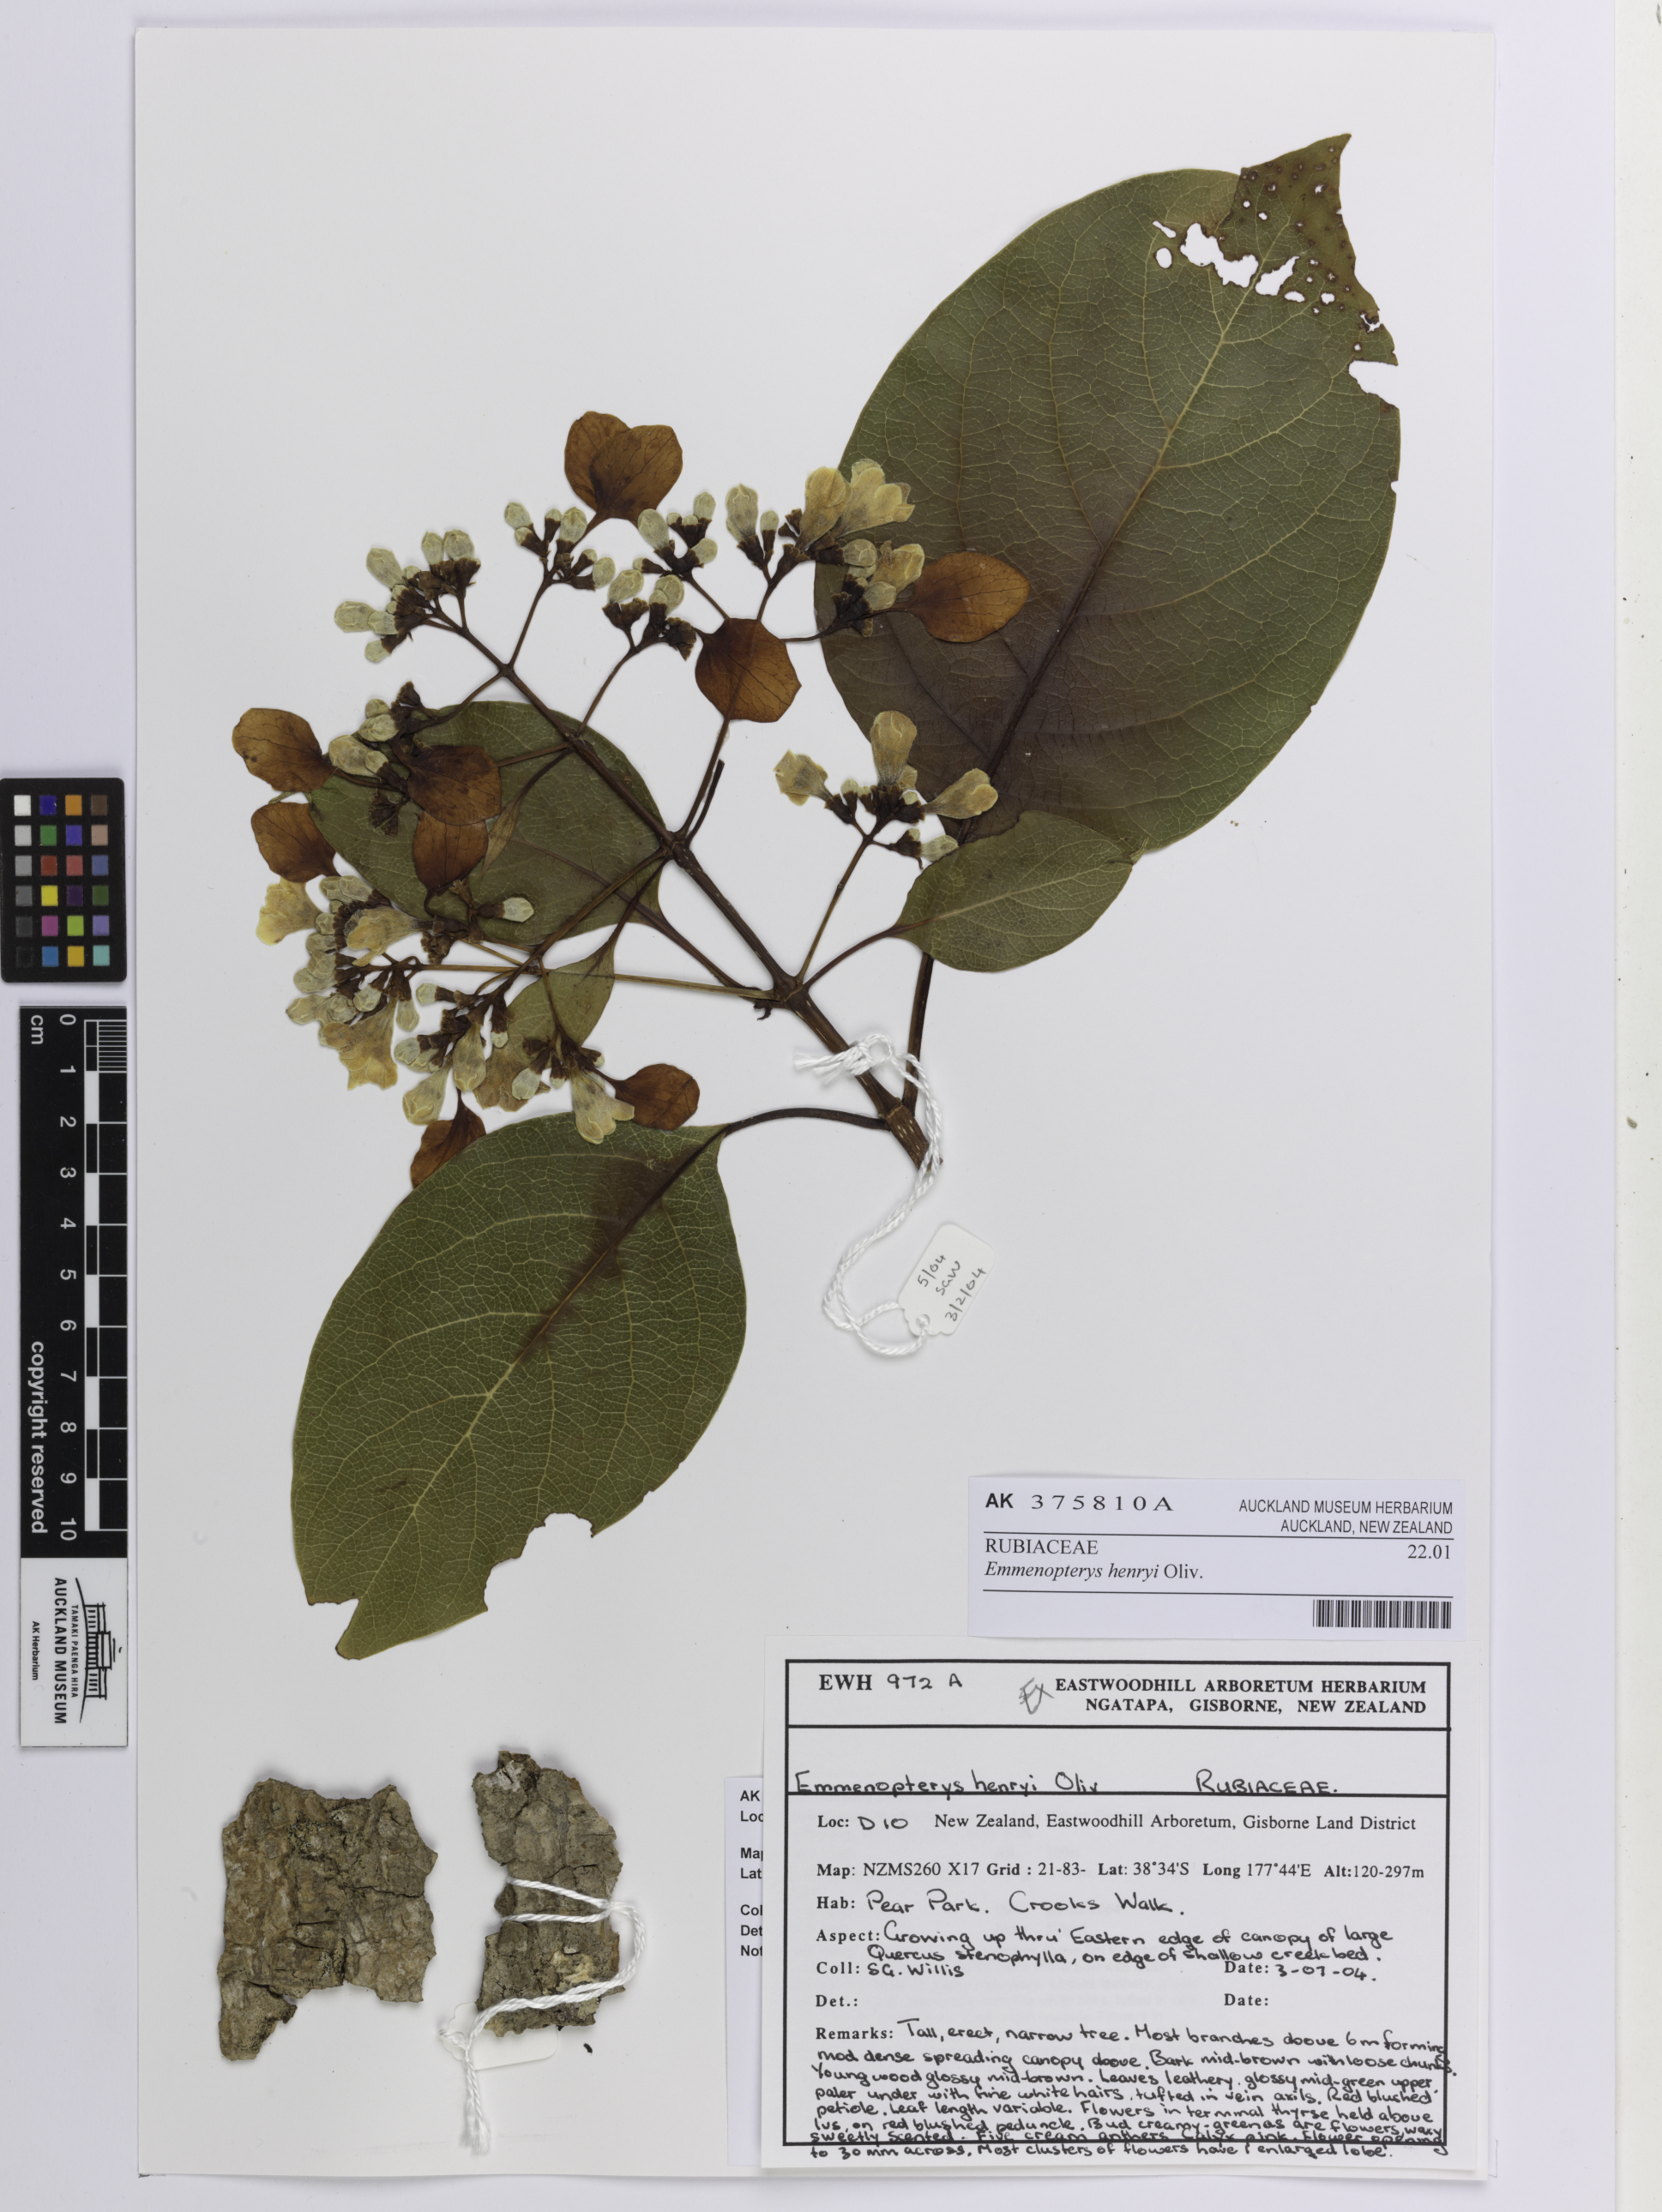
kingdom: Plantae
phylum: Tracheophyta
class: Magnoliopsida
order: Gentianales
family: Rubiaceae
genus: Emmenopterys
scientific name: Emmenopterys henryi
